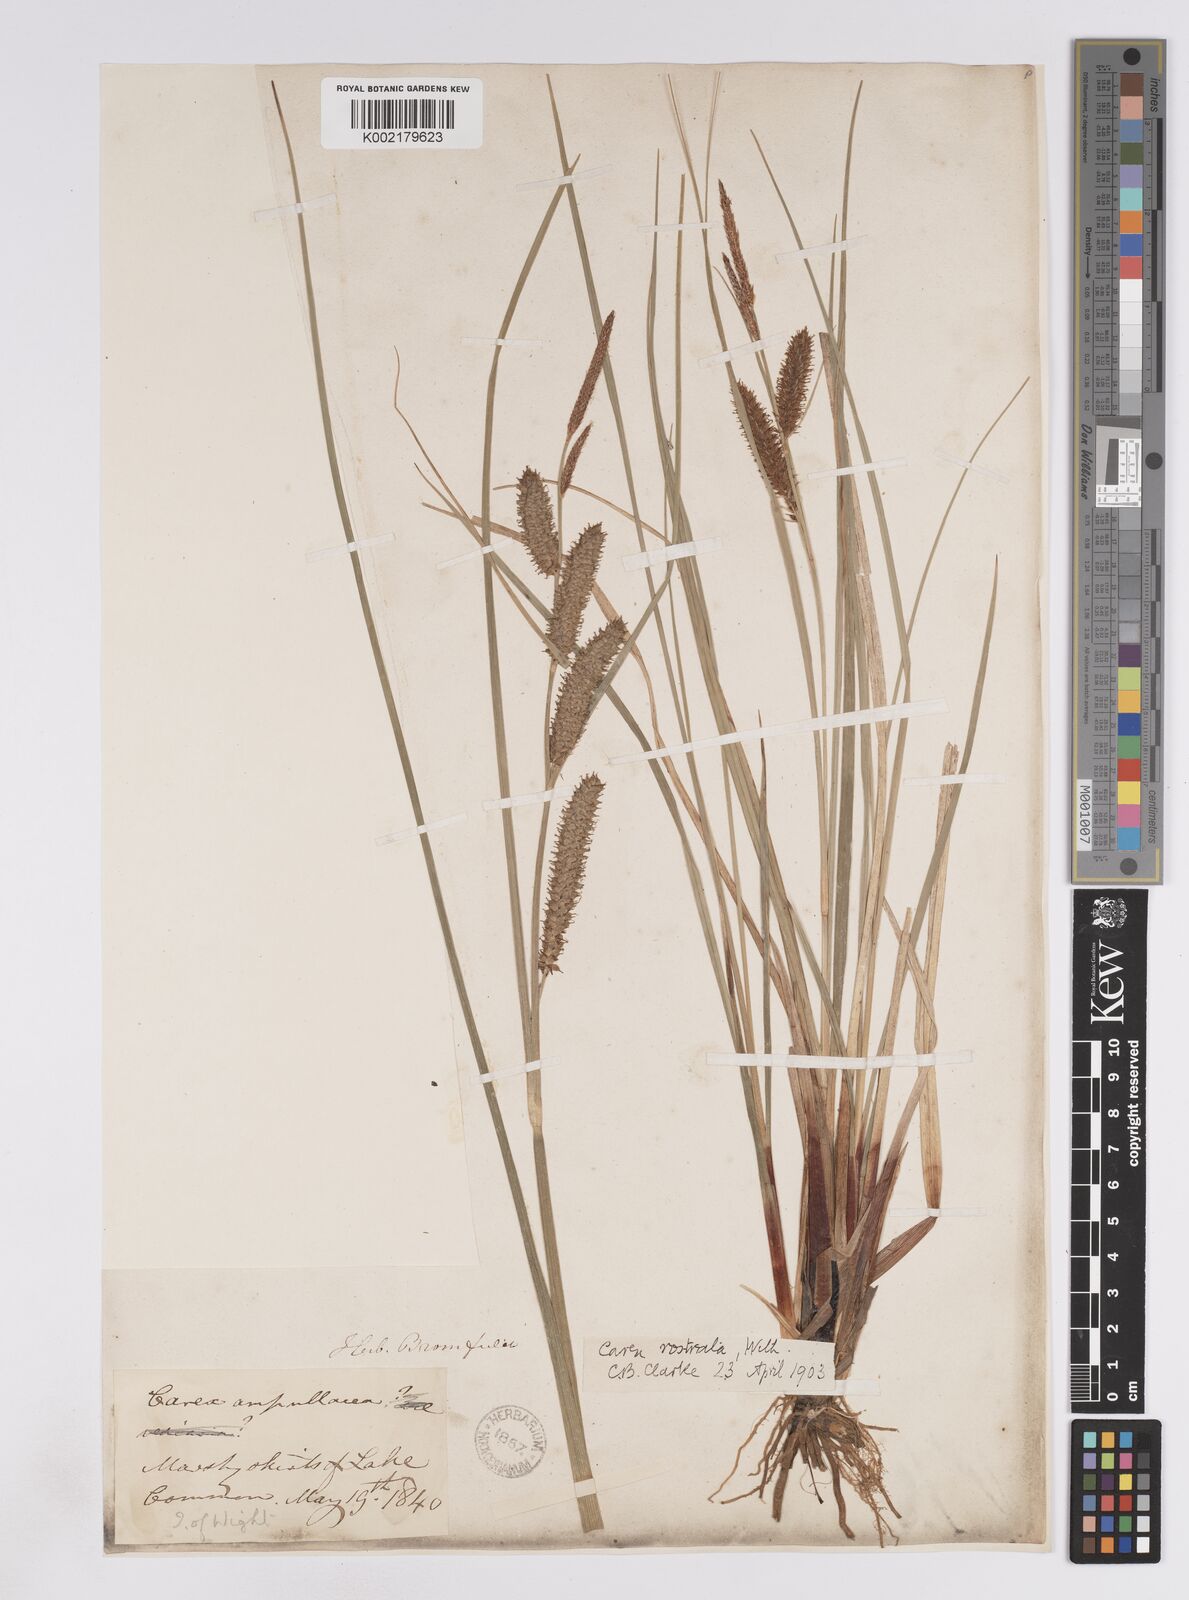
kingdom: Plantae
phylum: Tracheophyta
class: Liliopsida
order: Poales
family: Cyperaceae
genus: Carex
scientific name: Carex rostrata
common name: Bottle sedge
